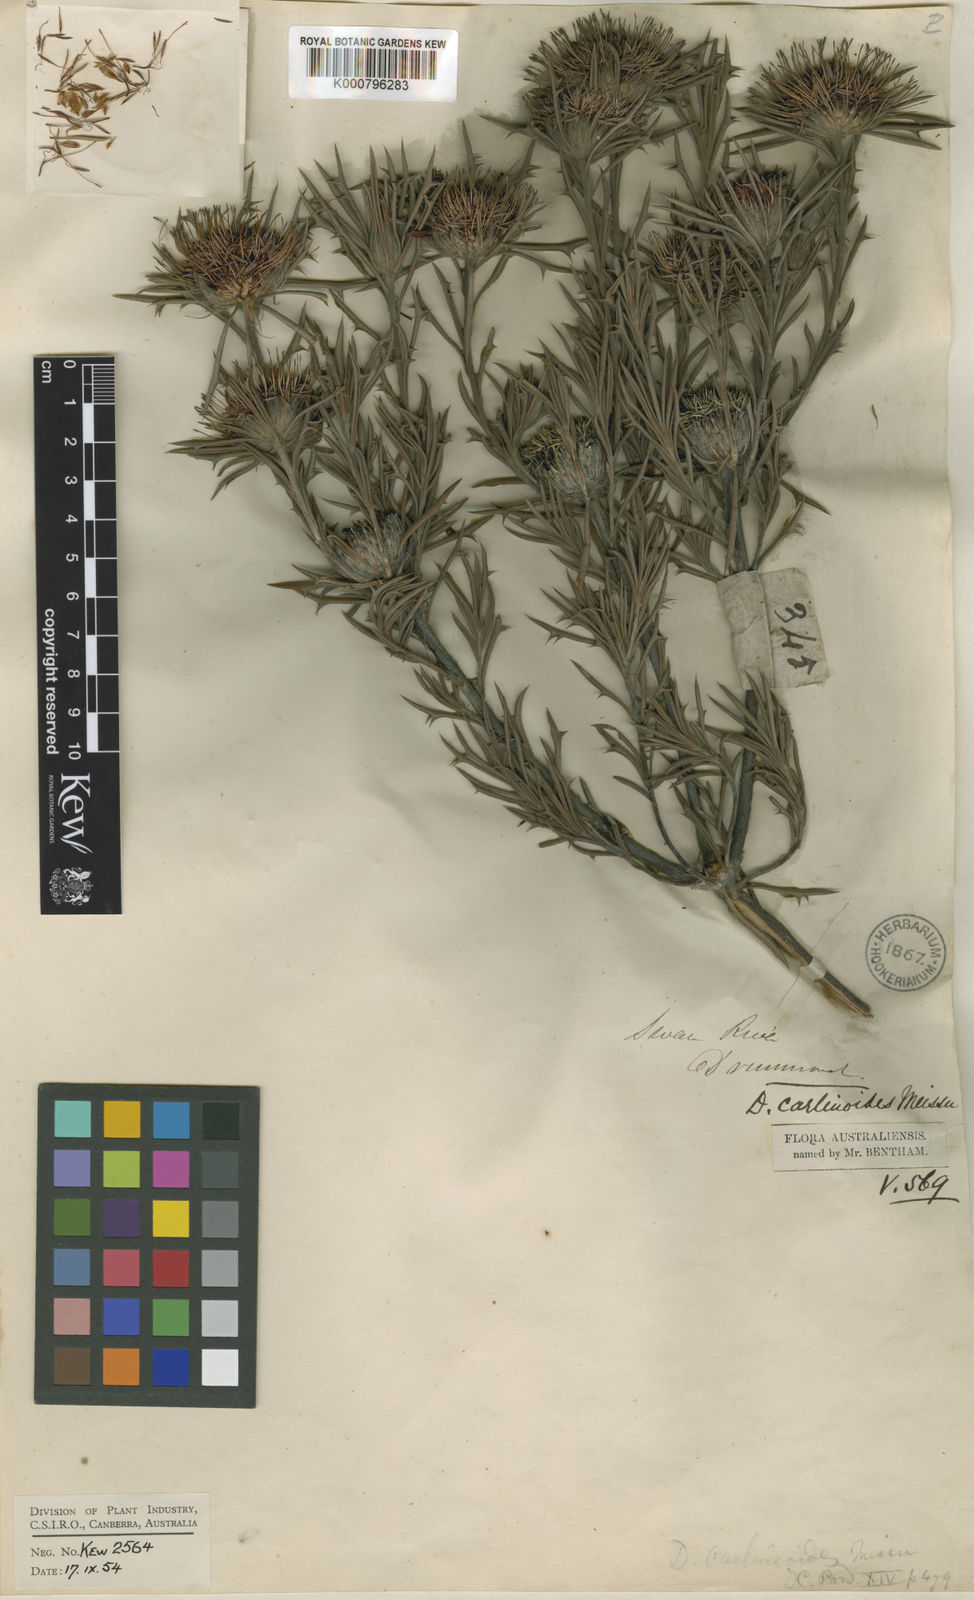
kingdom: Plantae
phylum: Tracheophyta
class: Magnoliopsida
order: Proteales
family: Proteaceae
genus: Banksia
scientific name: Banksia carlinoides
